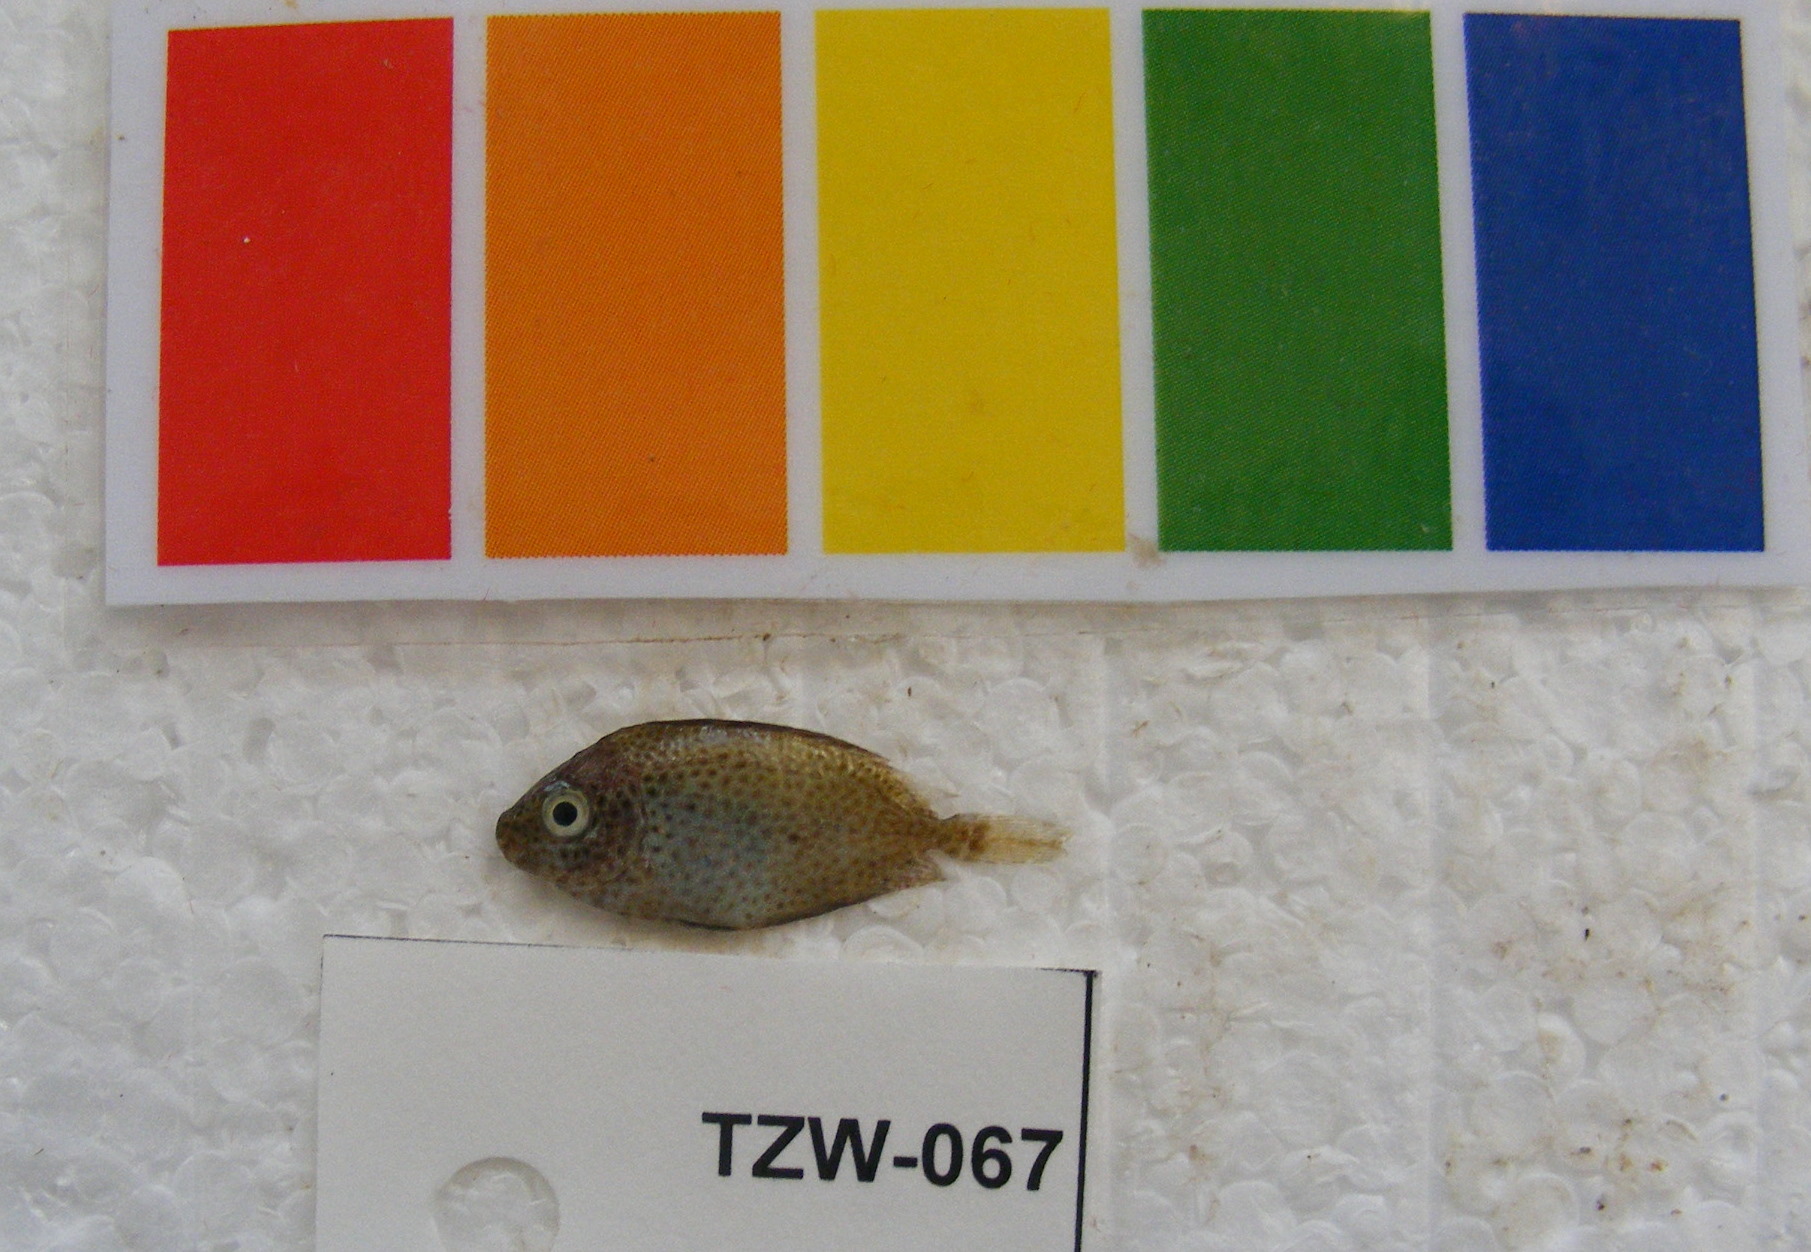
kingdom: Animalia
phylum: Chordata
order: Perciformes
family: Siganidae
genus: Siganus
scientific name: Siganus stellatus
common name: Brown-spotted spinefoot
